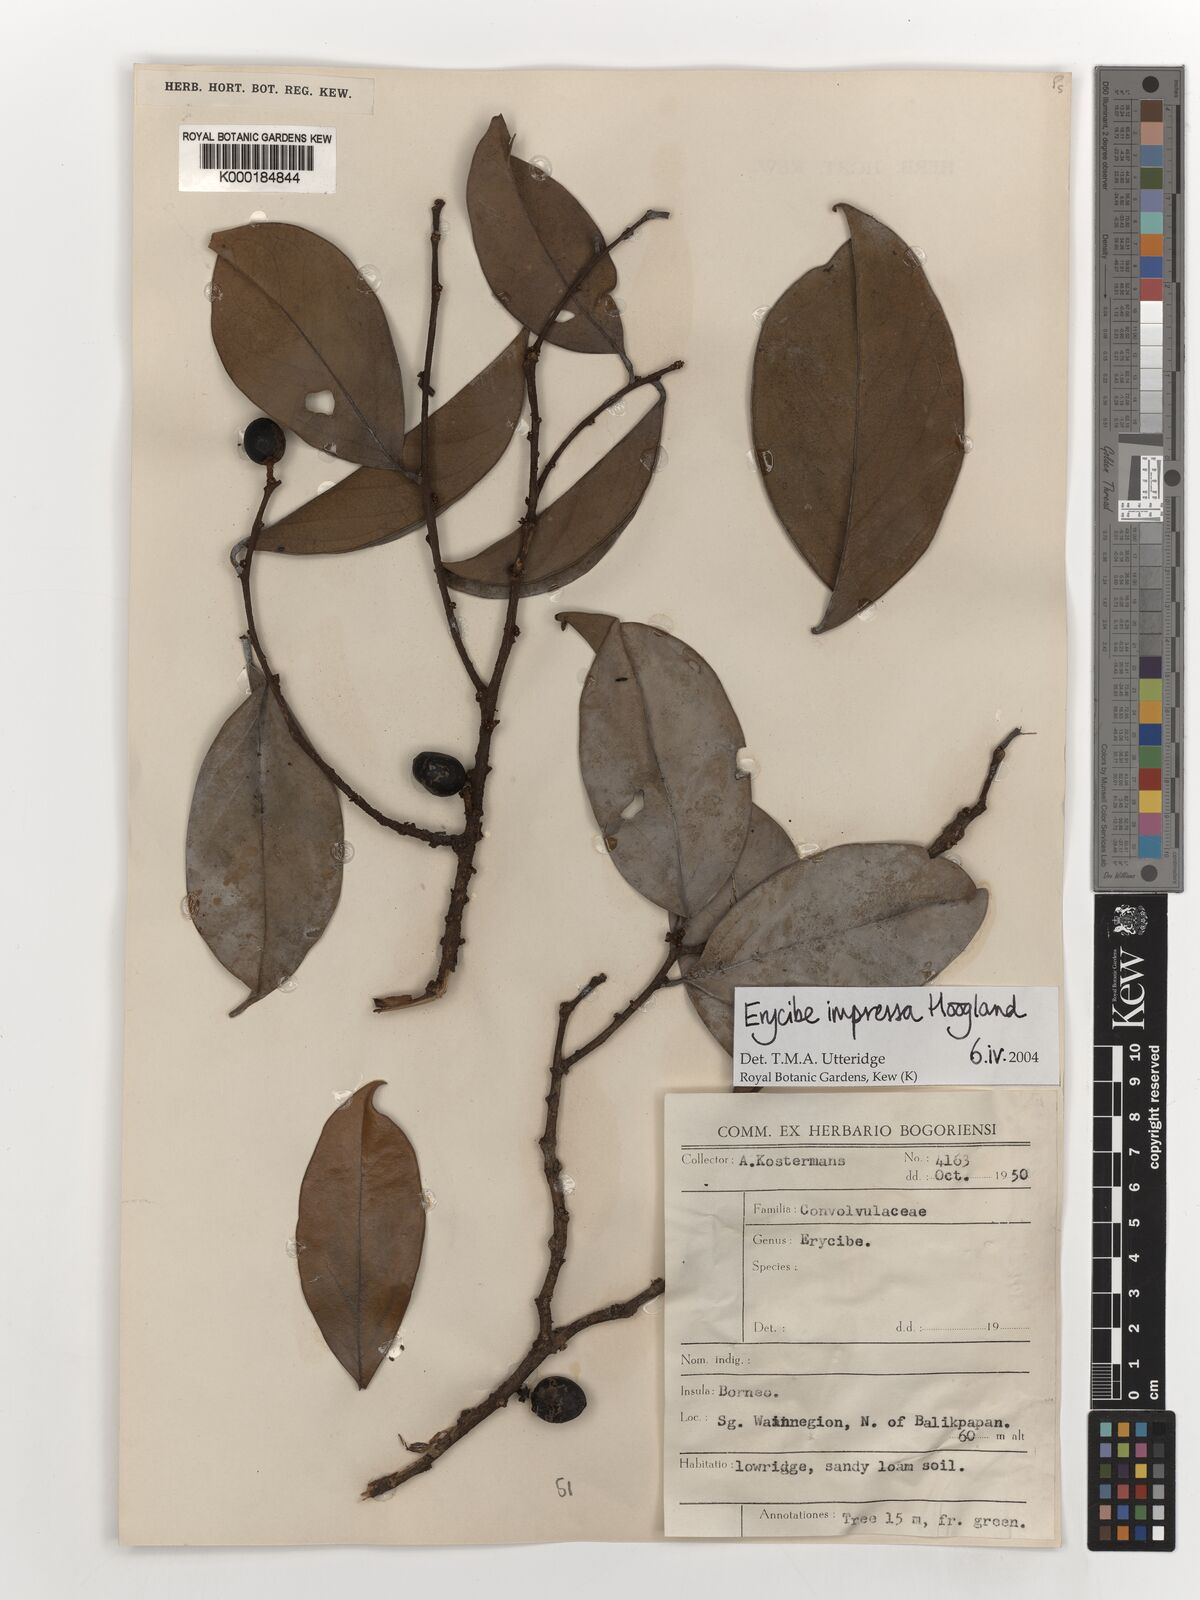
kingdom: Plantae
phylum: Tracheophyta
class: Magnoliopsida
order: Solanales
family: Convolvulaceae
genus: Erycibe
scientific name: Erycibe impressa
